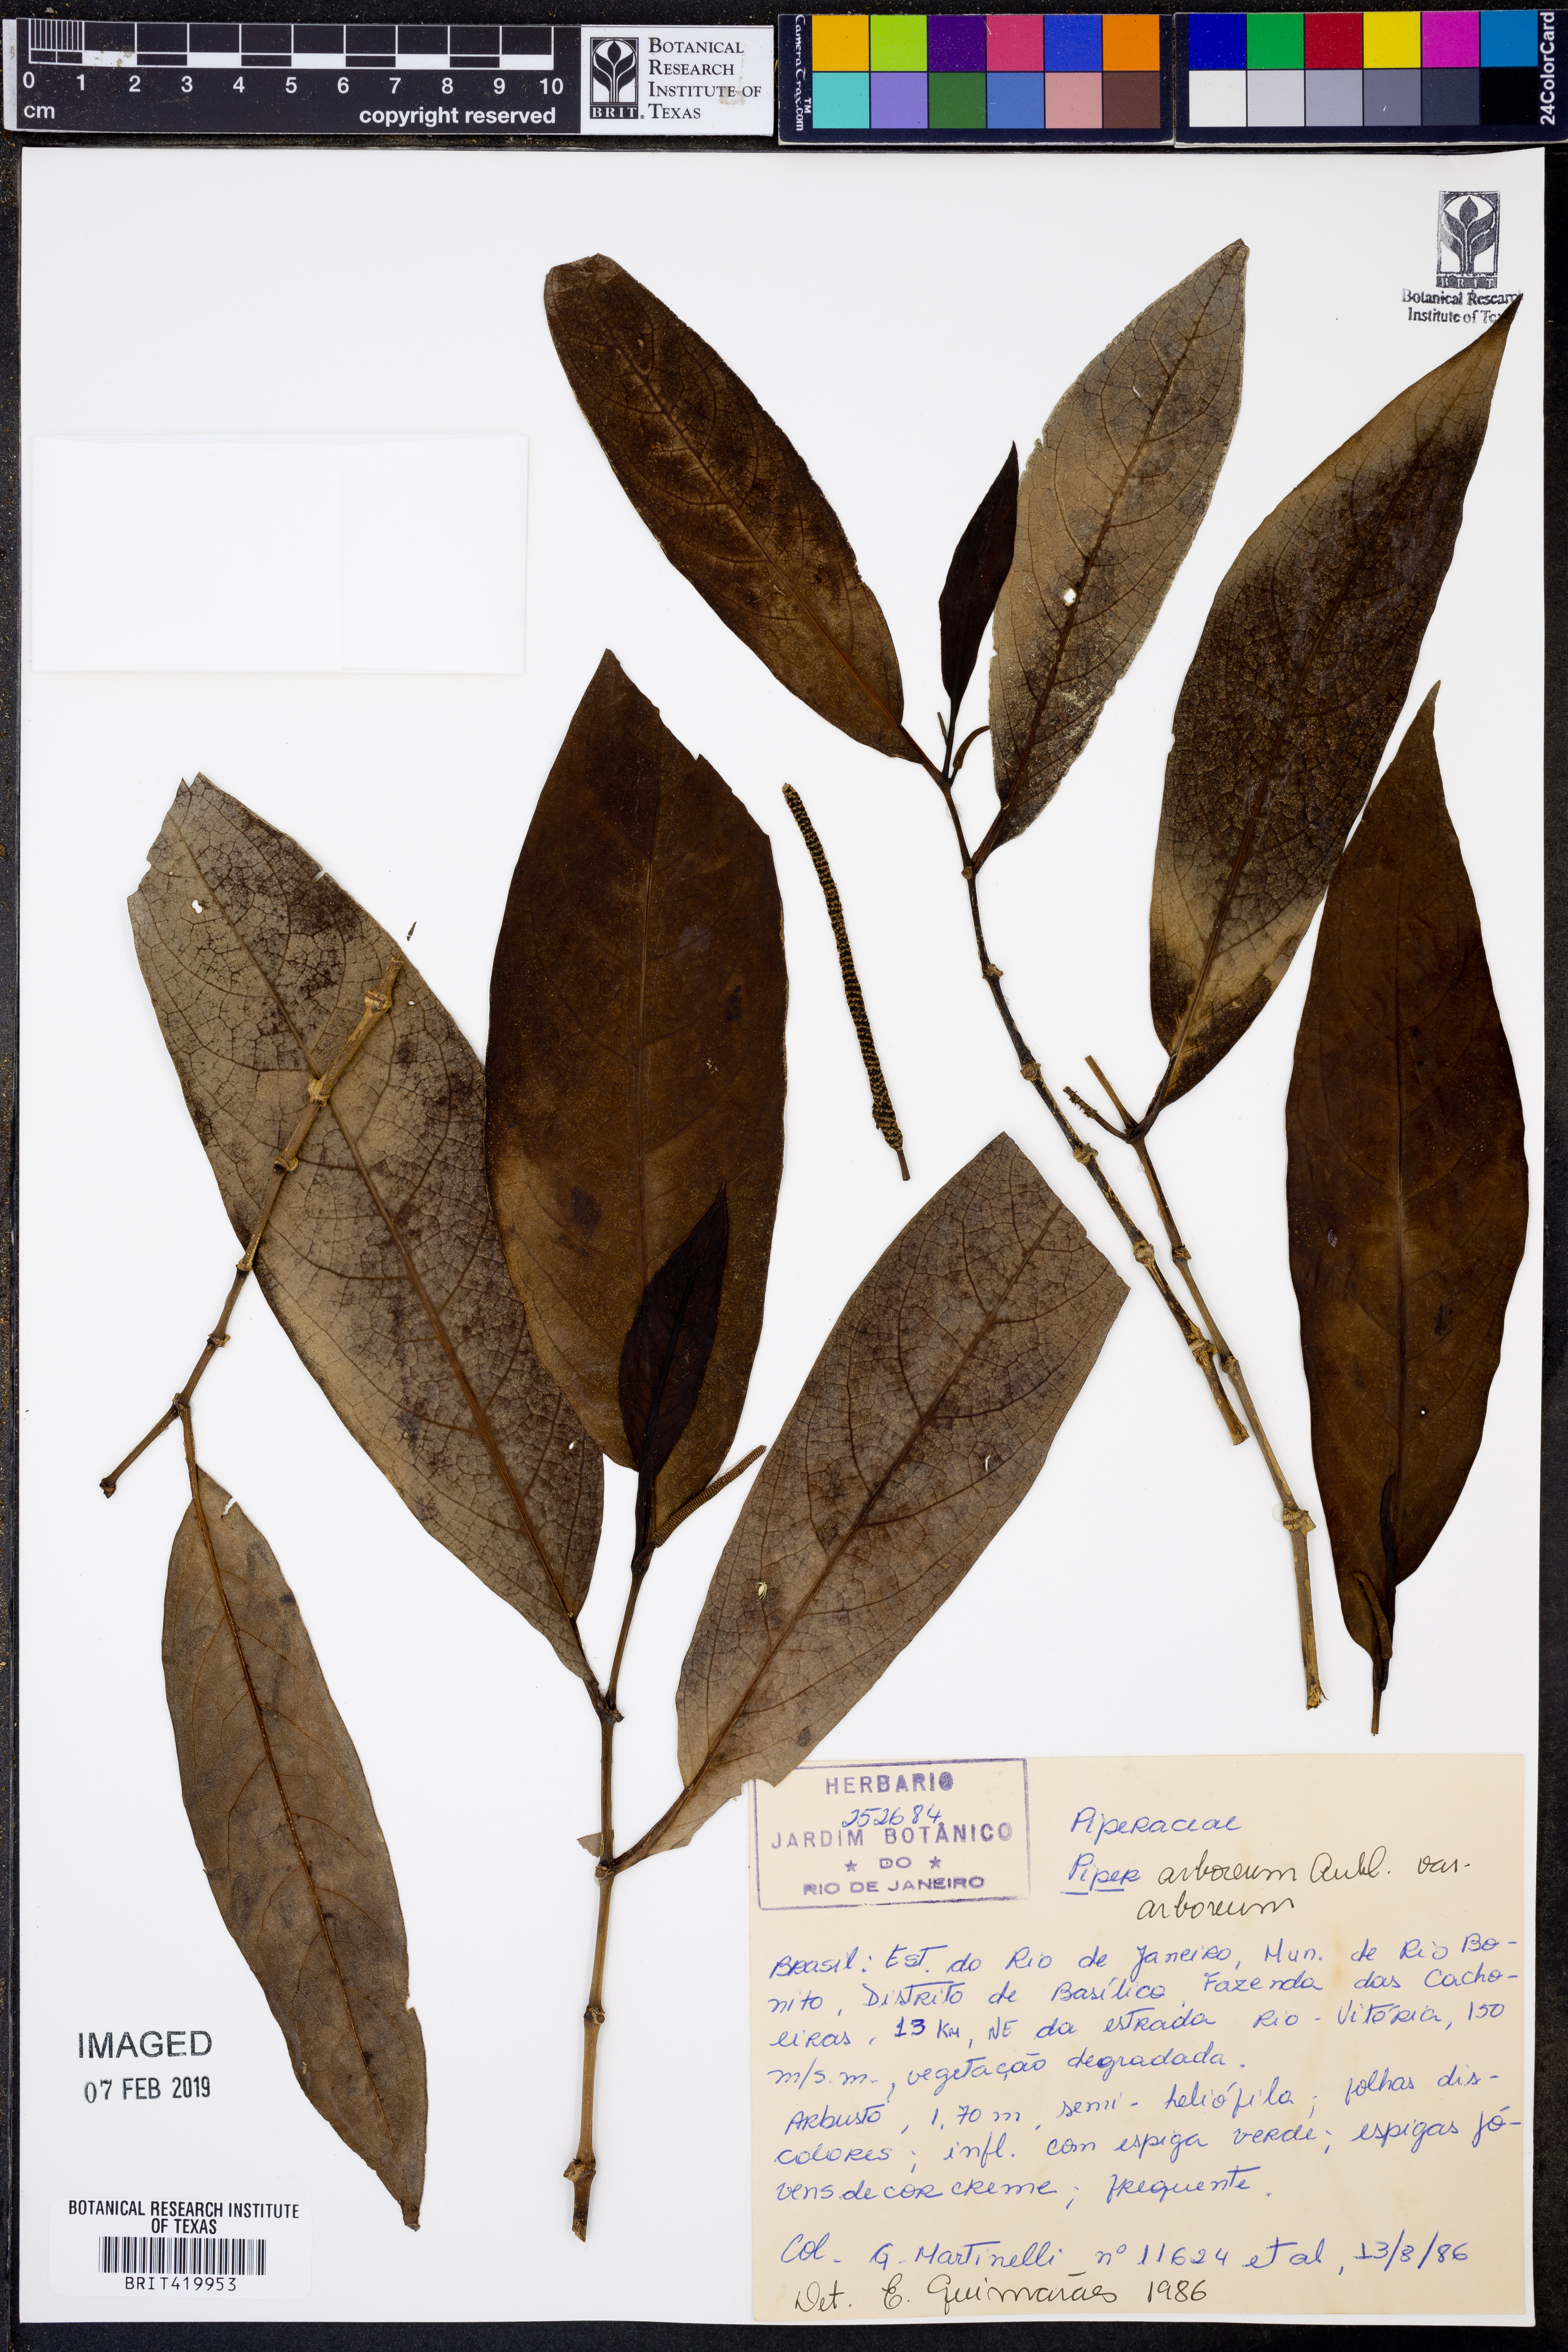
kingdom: Plantae
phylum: Tracheophyta
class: Magnoliopsida
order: Piperales
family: Piperaceae
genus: Piper
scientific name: Piper arboreum
